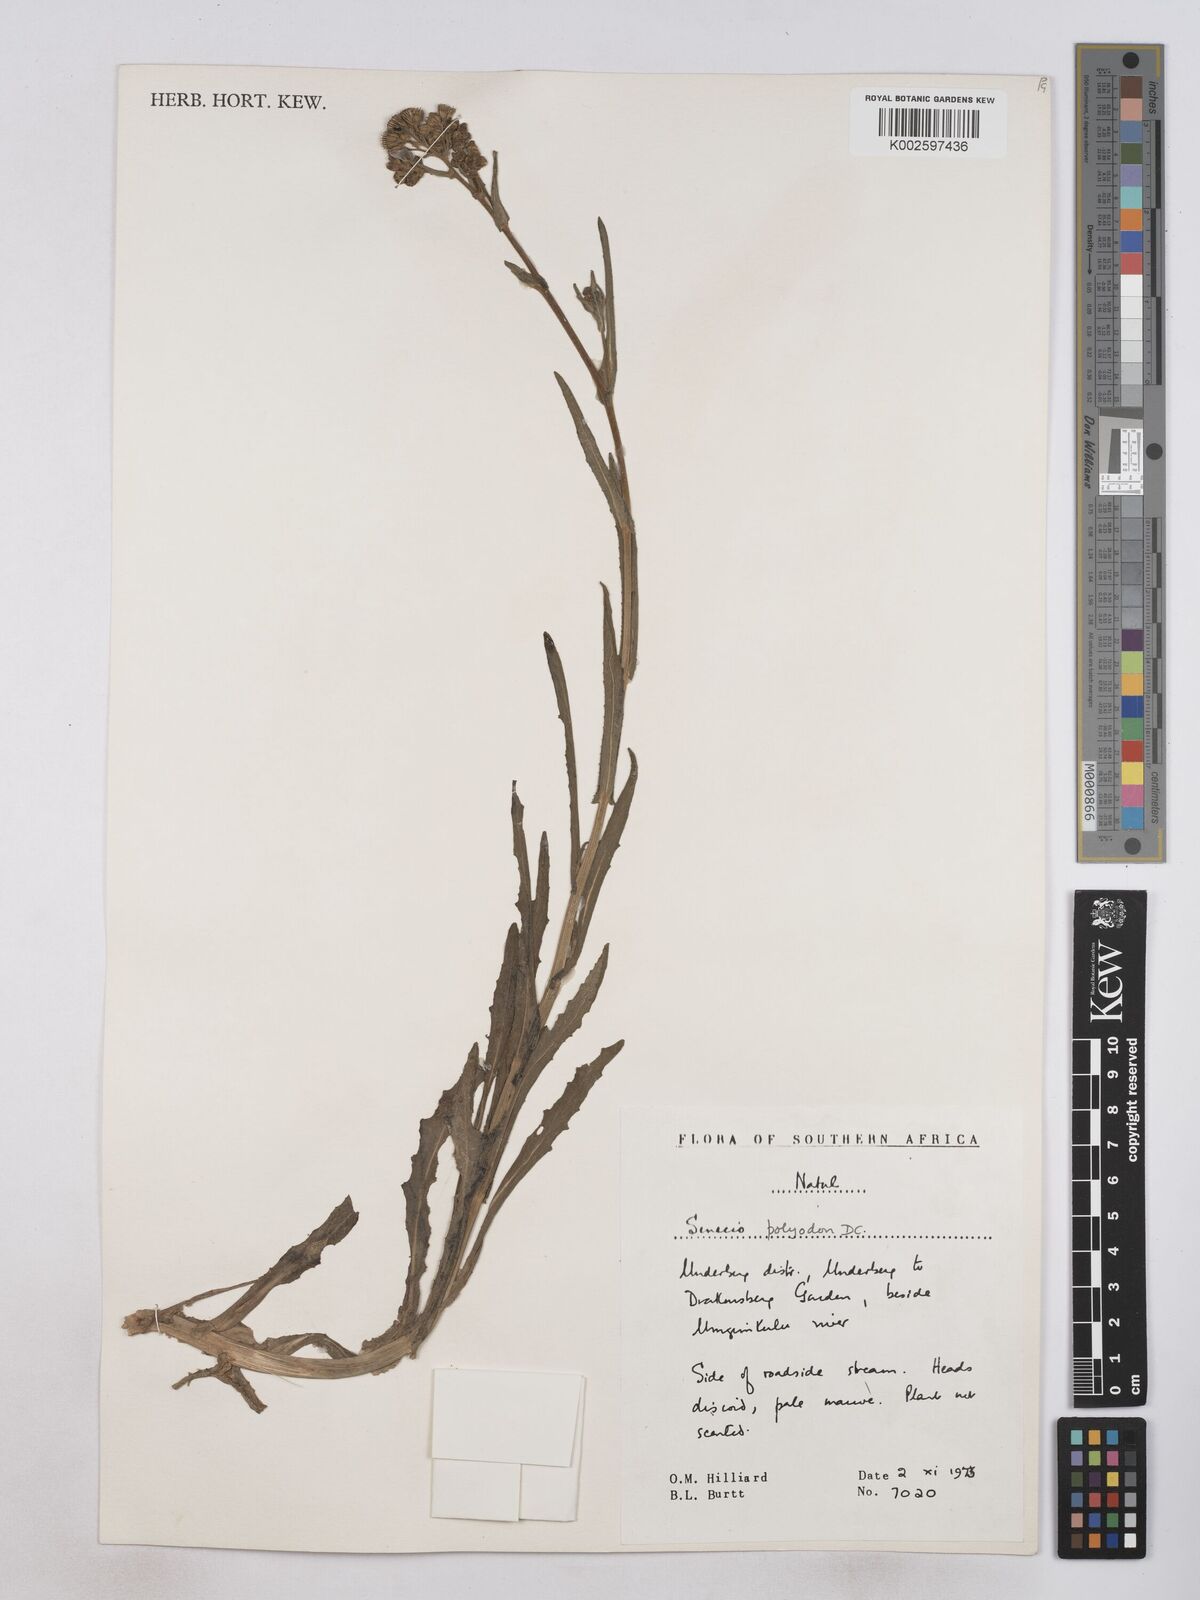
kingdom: Plantae
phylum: Tracheophyta
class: Magnoliopsida
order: Asterales
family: Asteraceae
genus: Senecio
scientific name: Senecio polyodon
